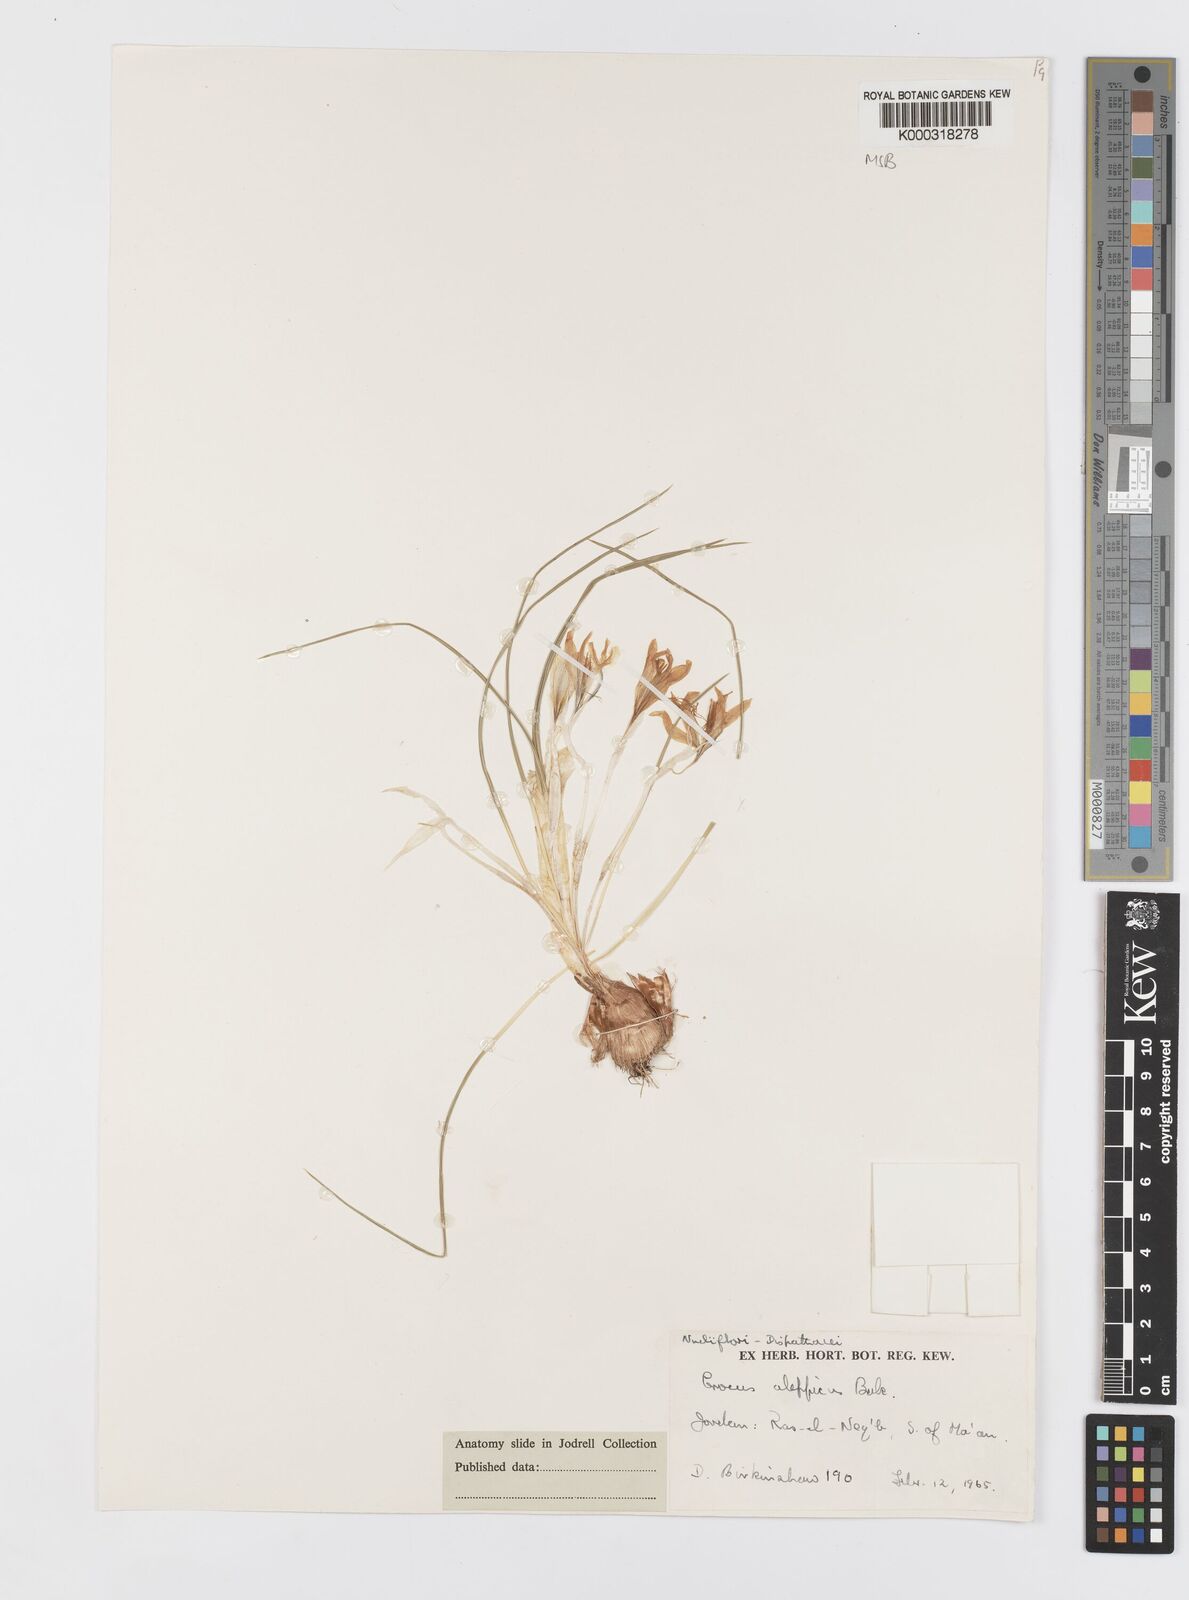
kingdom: Plantae
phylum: Tracheophyta
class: Liliopsida
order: Asparagales
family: Iridaceae
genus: Crocus
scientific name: Crocus aleppicus
